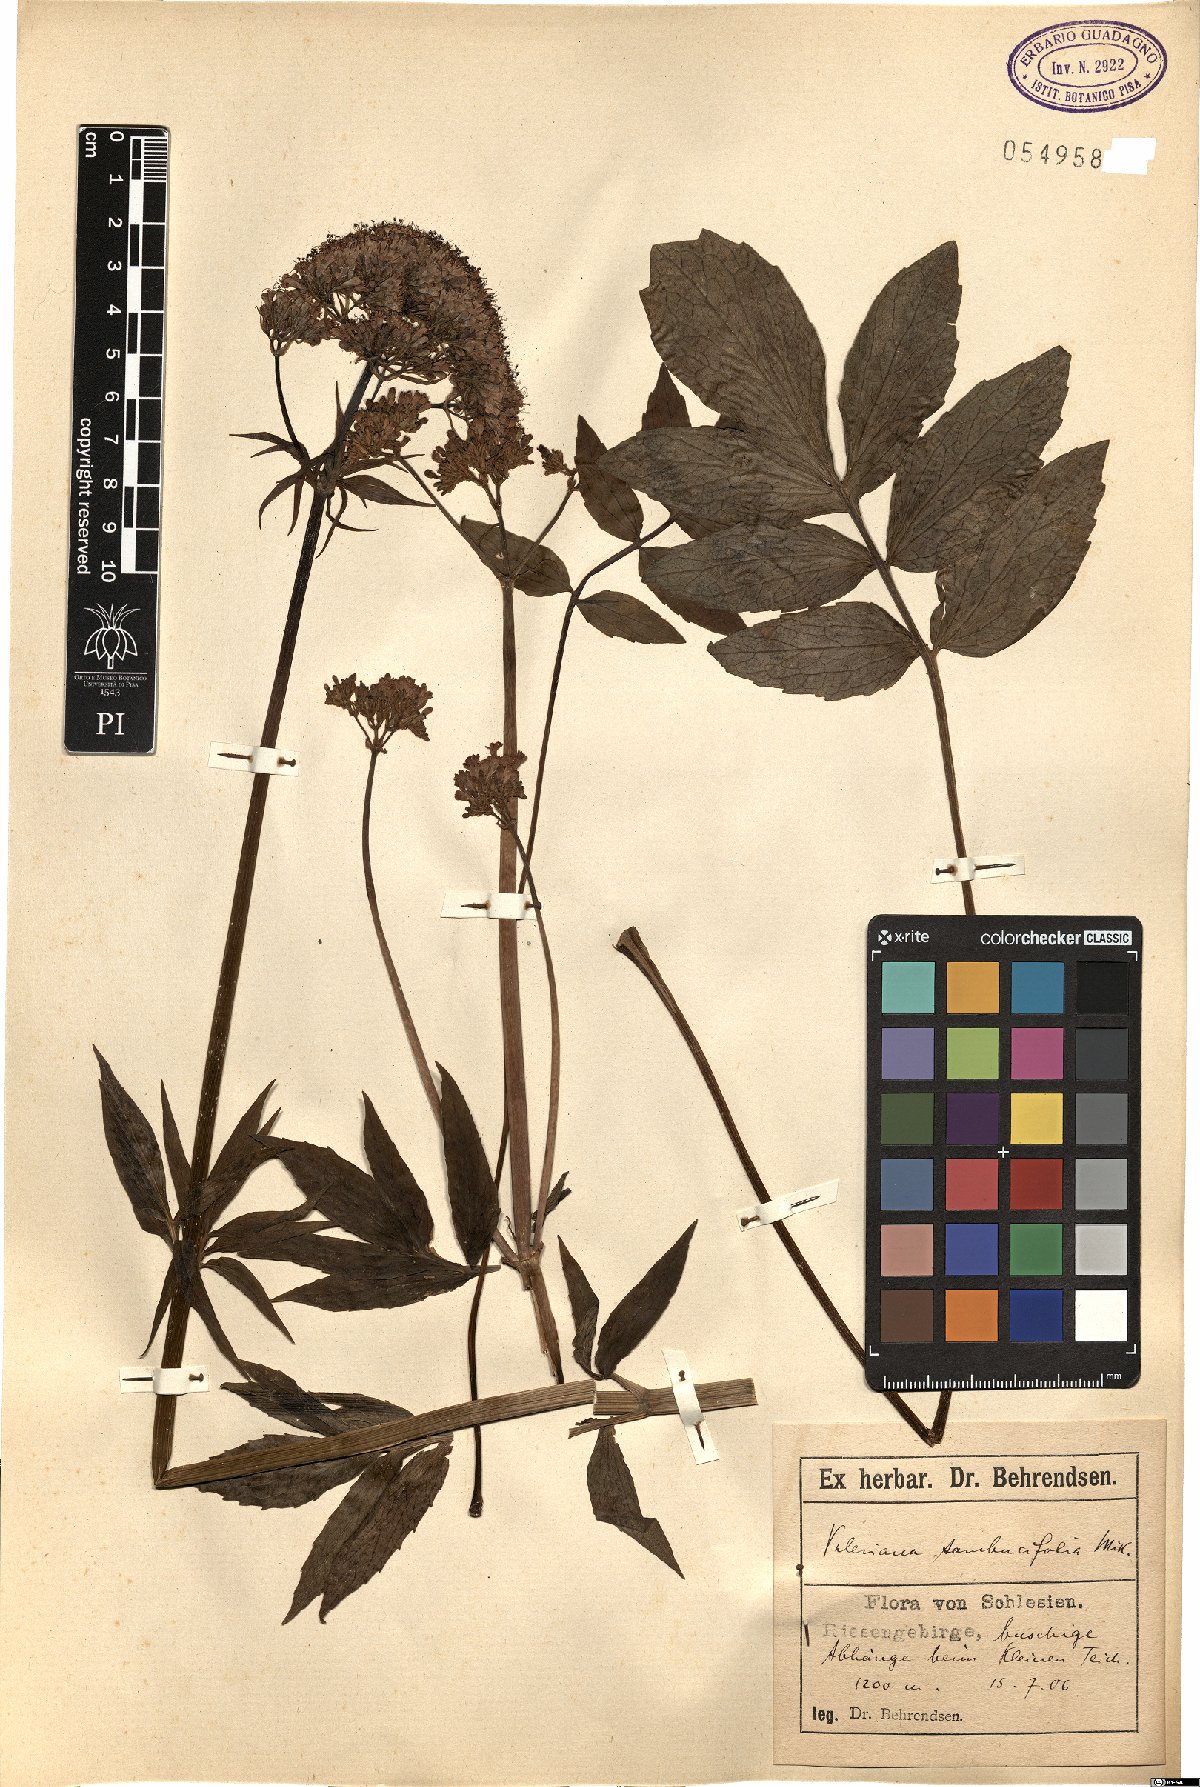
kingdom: Plantae
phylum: Tracheophyta
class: Magnoliopsida
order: Dipsacales
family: Caprifoliaceae
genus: Valeriana
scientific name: Valeriana excelsa
